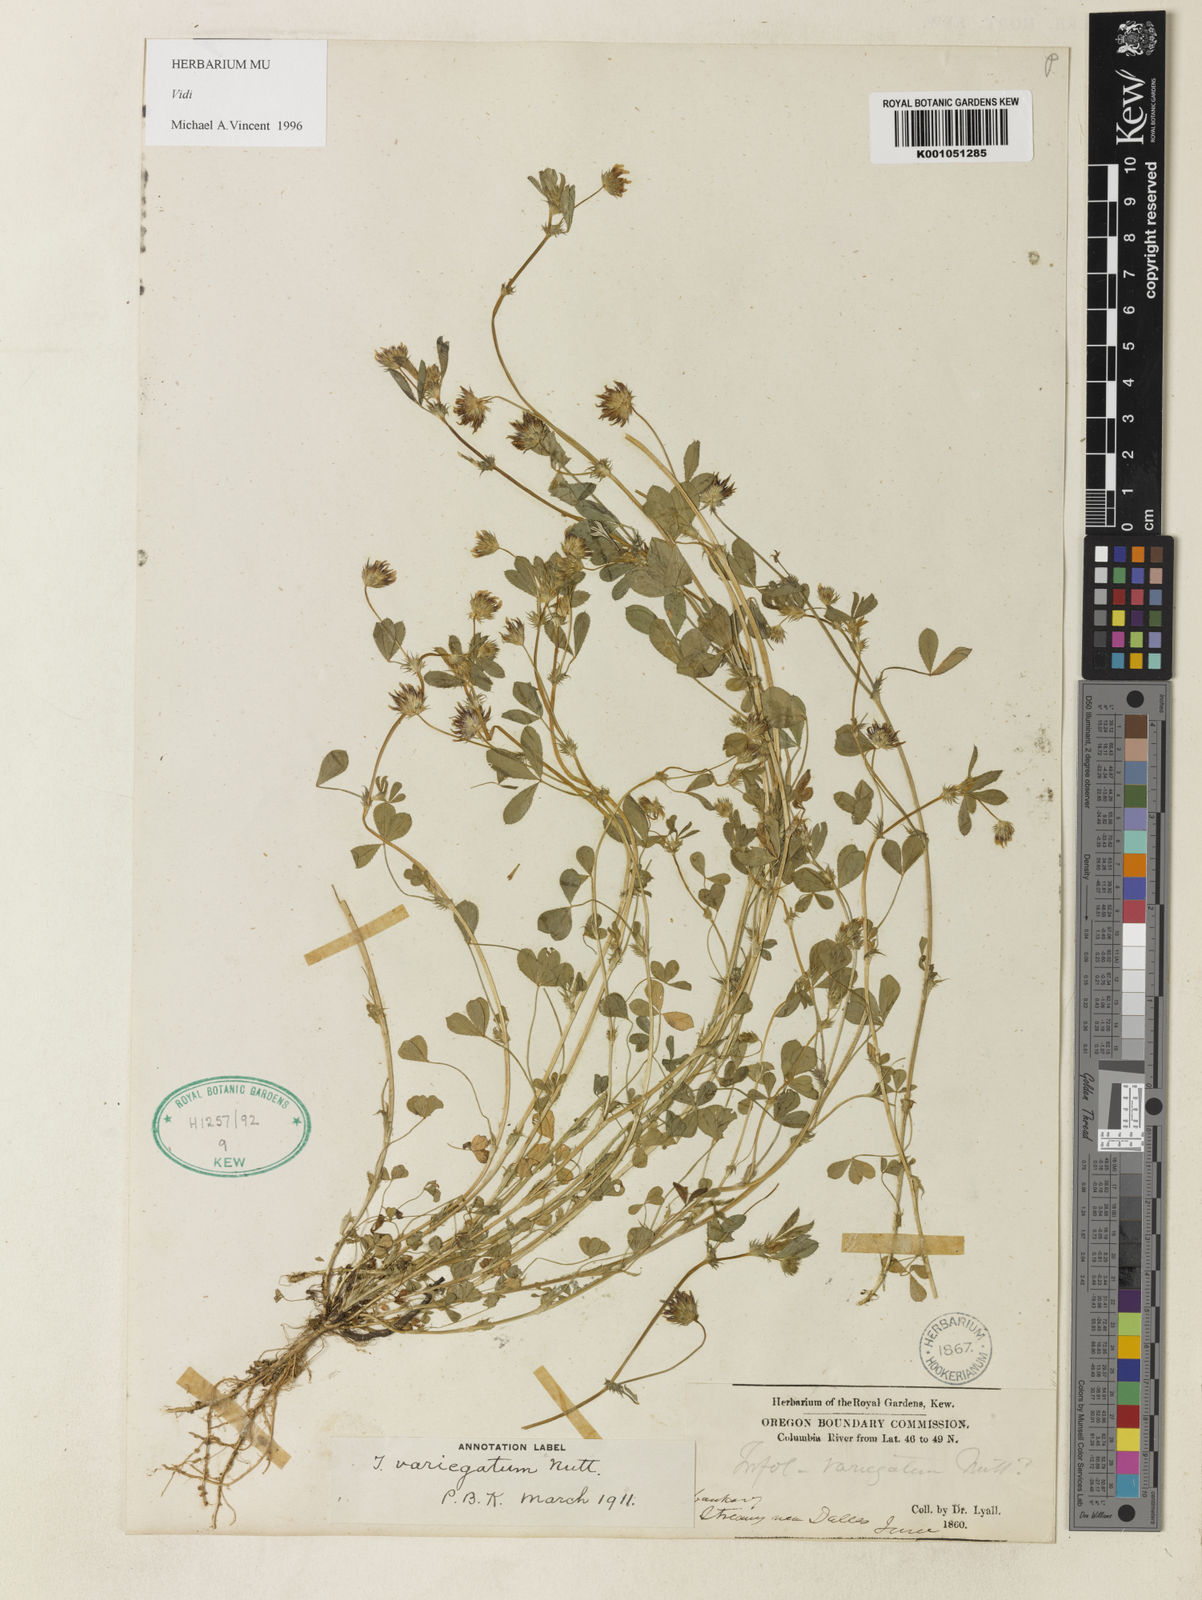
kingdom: Plantae
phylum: Tracheophyta
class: Magnoliopsida
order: Fabales
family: Fabaceae
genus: Trifolium
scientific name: Trifolium variegatum
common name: Whitetip clover
